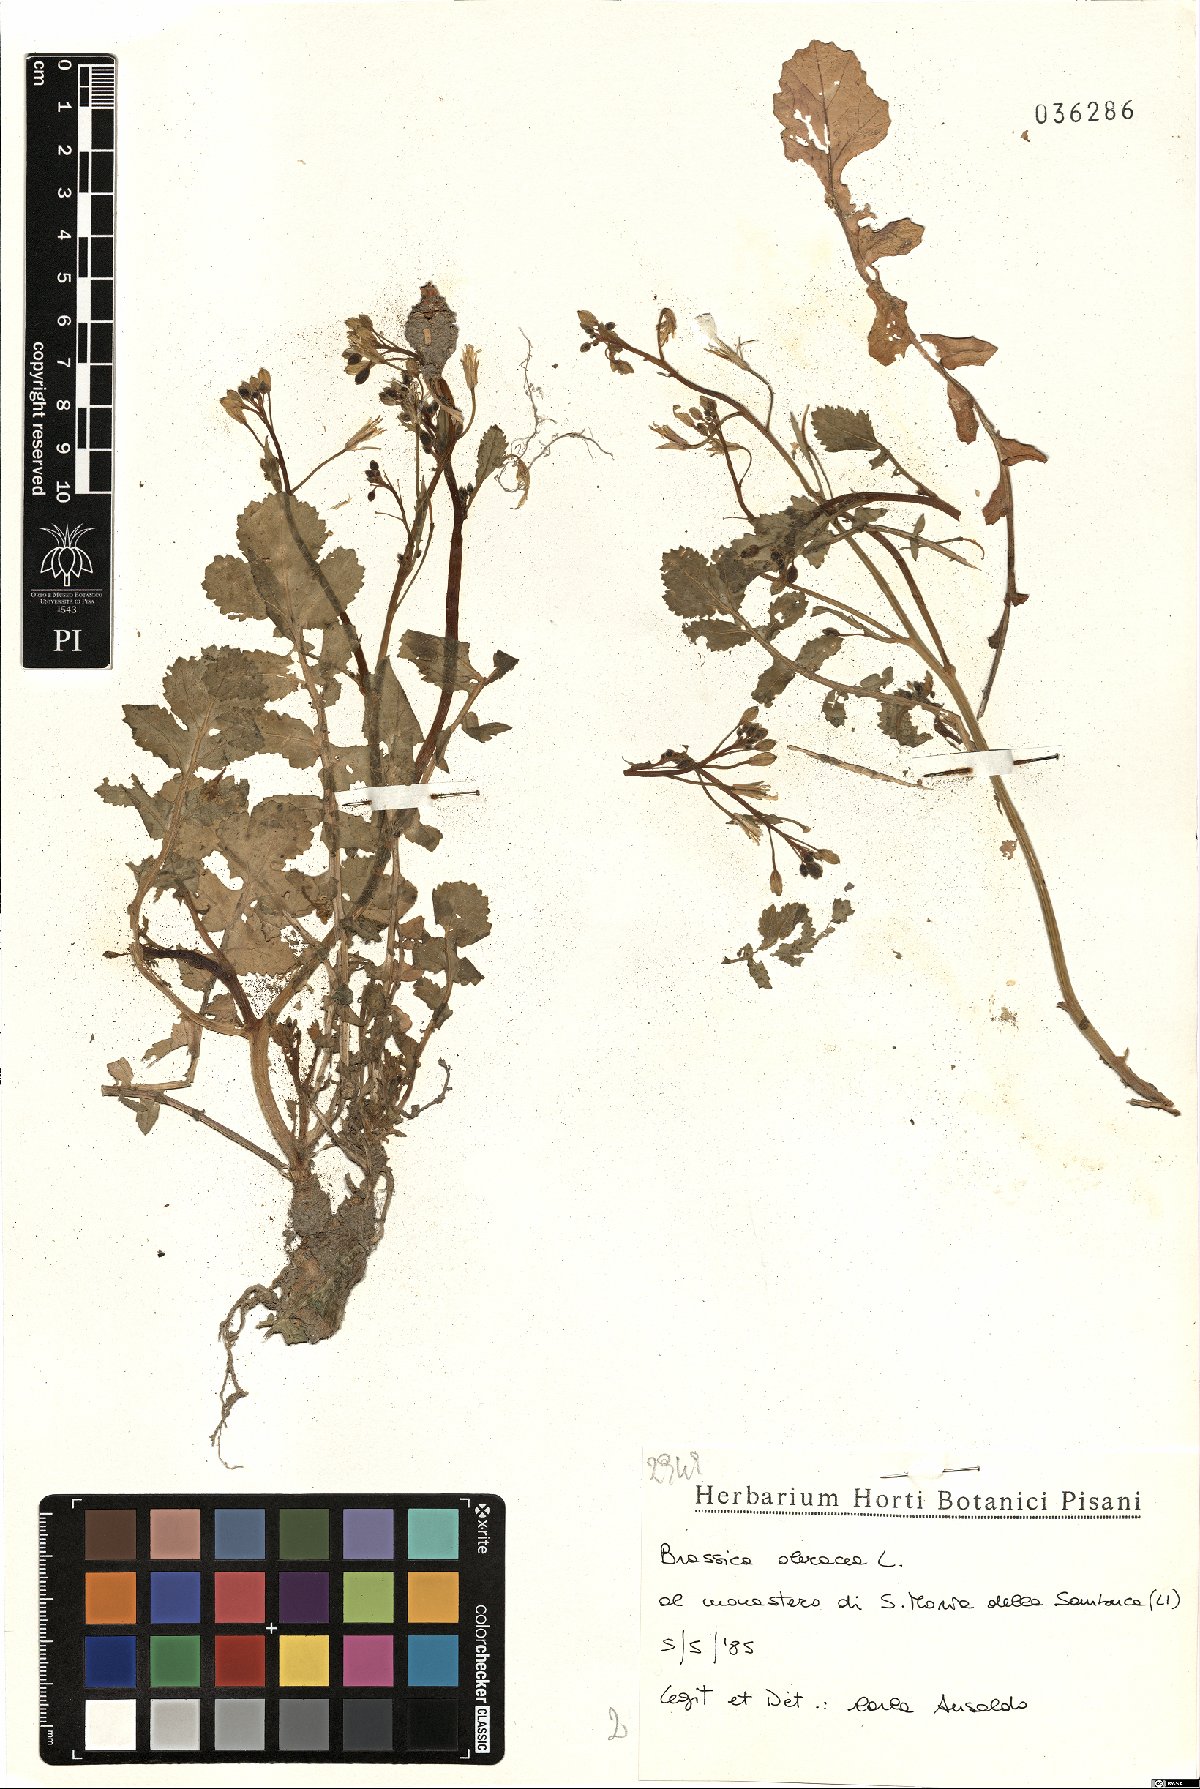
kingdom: Plantae
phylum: Tracheophyta
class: Magnoliopsida
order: Brassicales
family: Brassicaceae
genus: Brassica
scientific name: Brassica oleracea
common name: Cabbage
